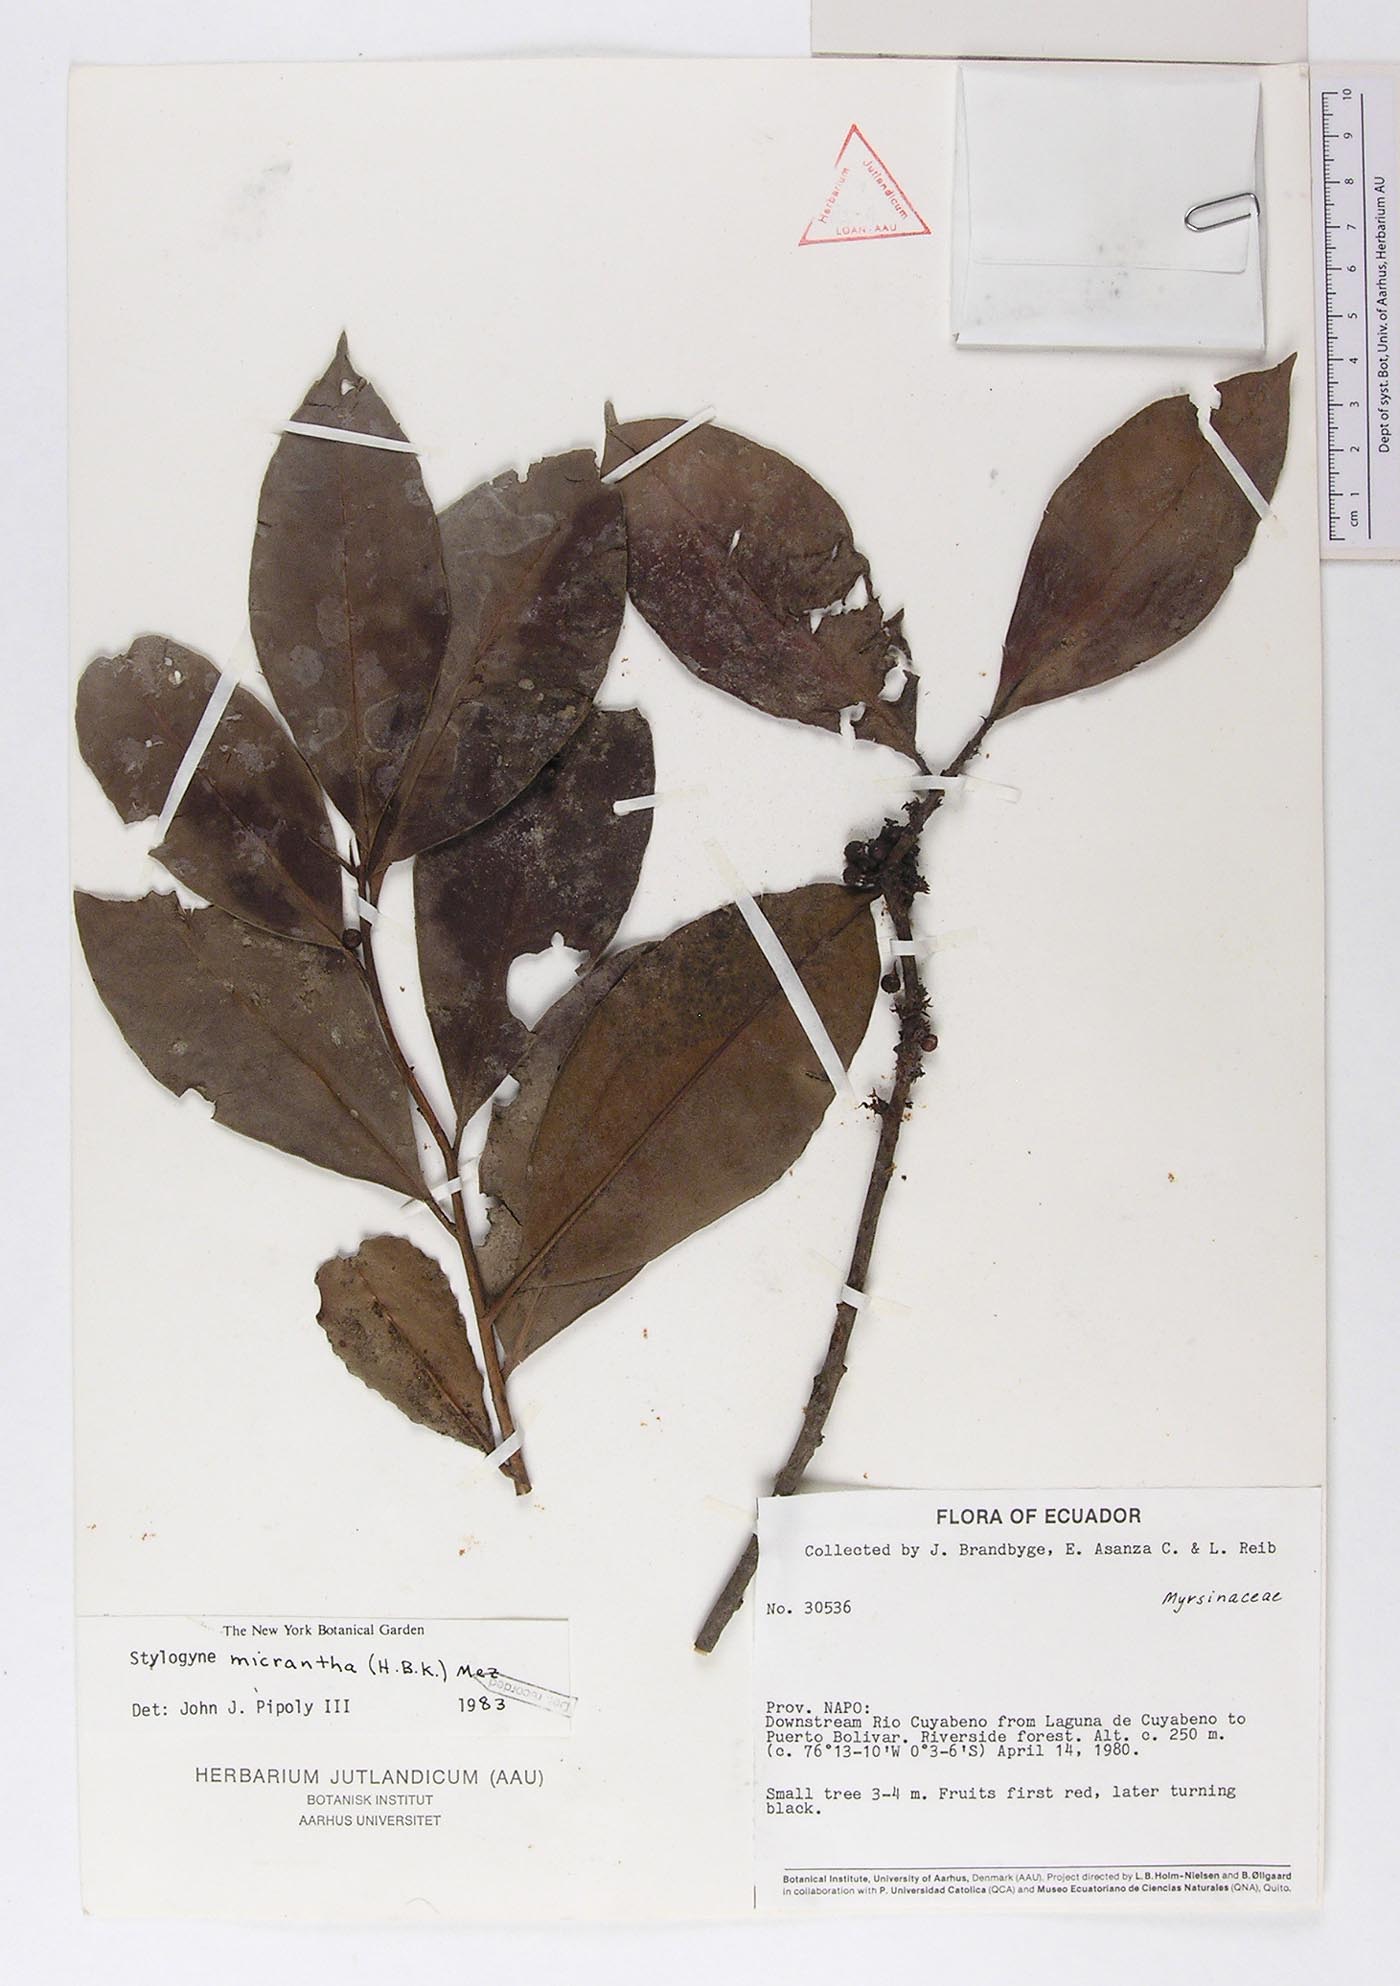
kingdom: Plantae
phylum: Tracheophyta
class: Magnoliopsida
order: Ericales
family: Primulaceae
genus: Stylogyne
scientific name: Stylogyne micrantha
